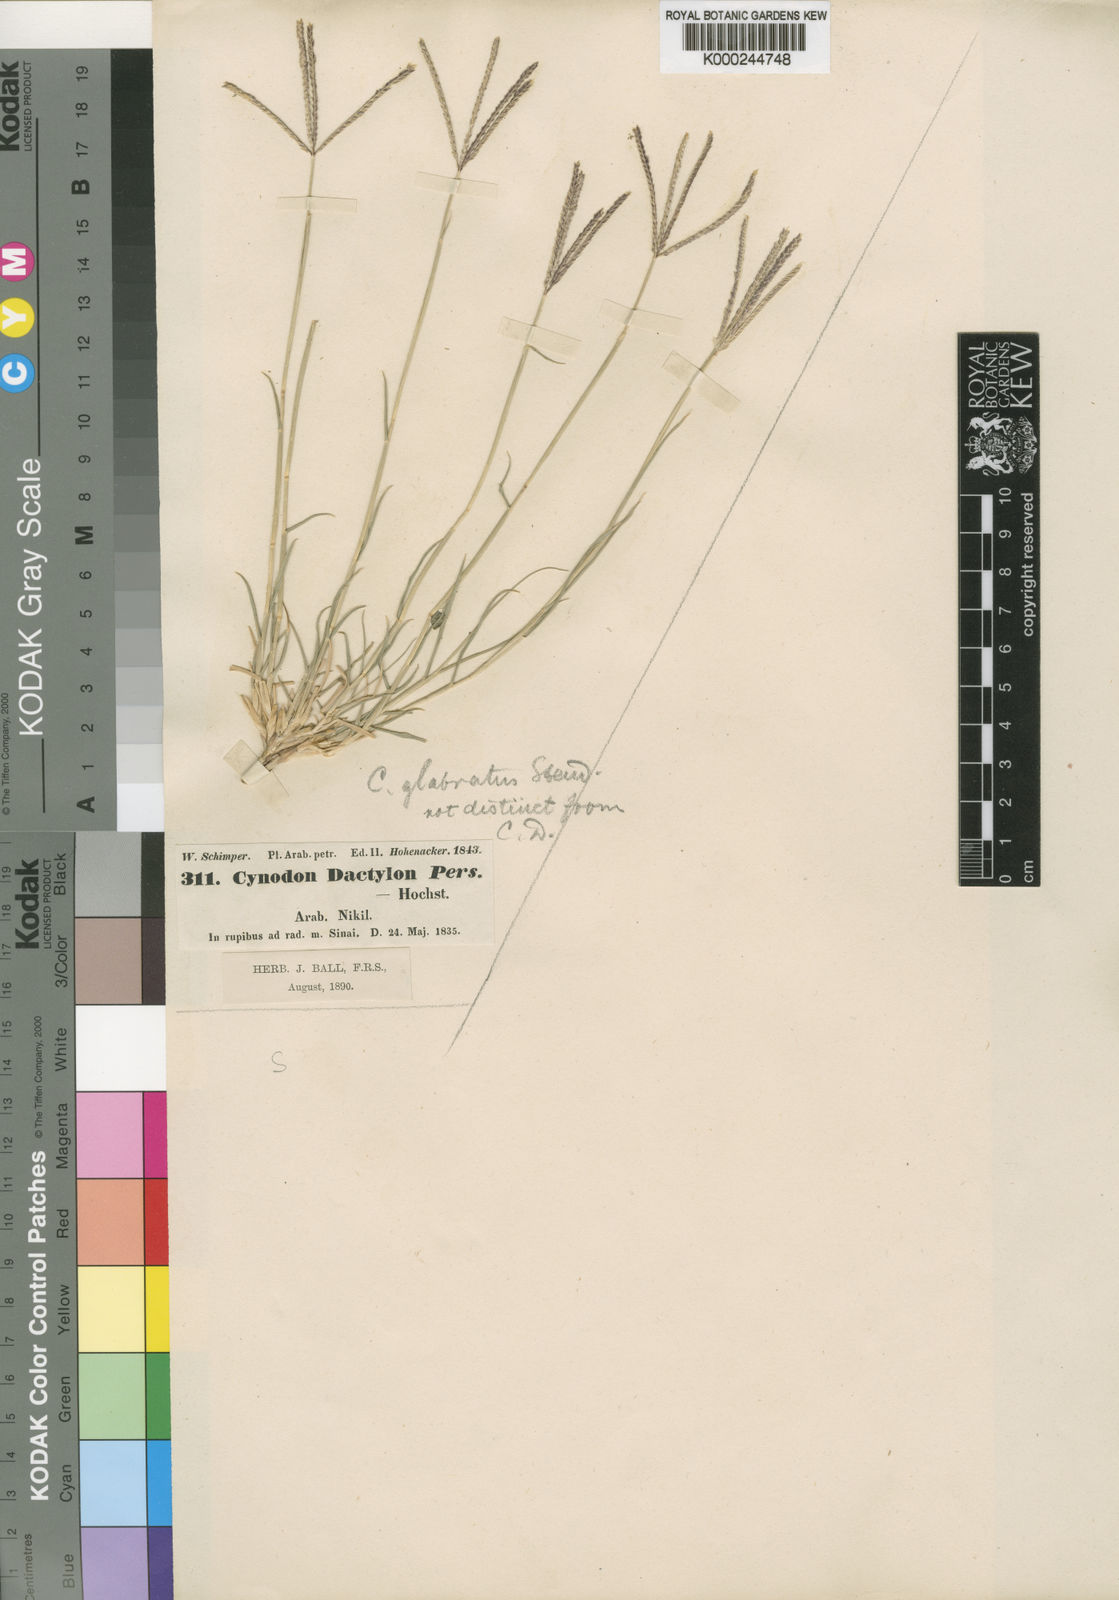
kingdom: Plantae
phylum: Tracheophyta
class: Liliopsida
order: Poales
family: Poaceae
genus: Cynodon
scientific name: Cynodon dactylon
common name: Bermuda grass
